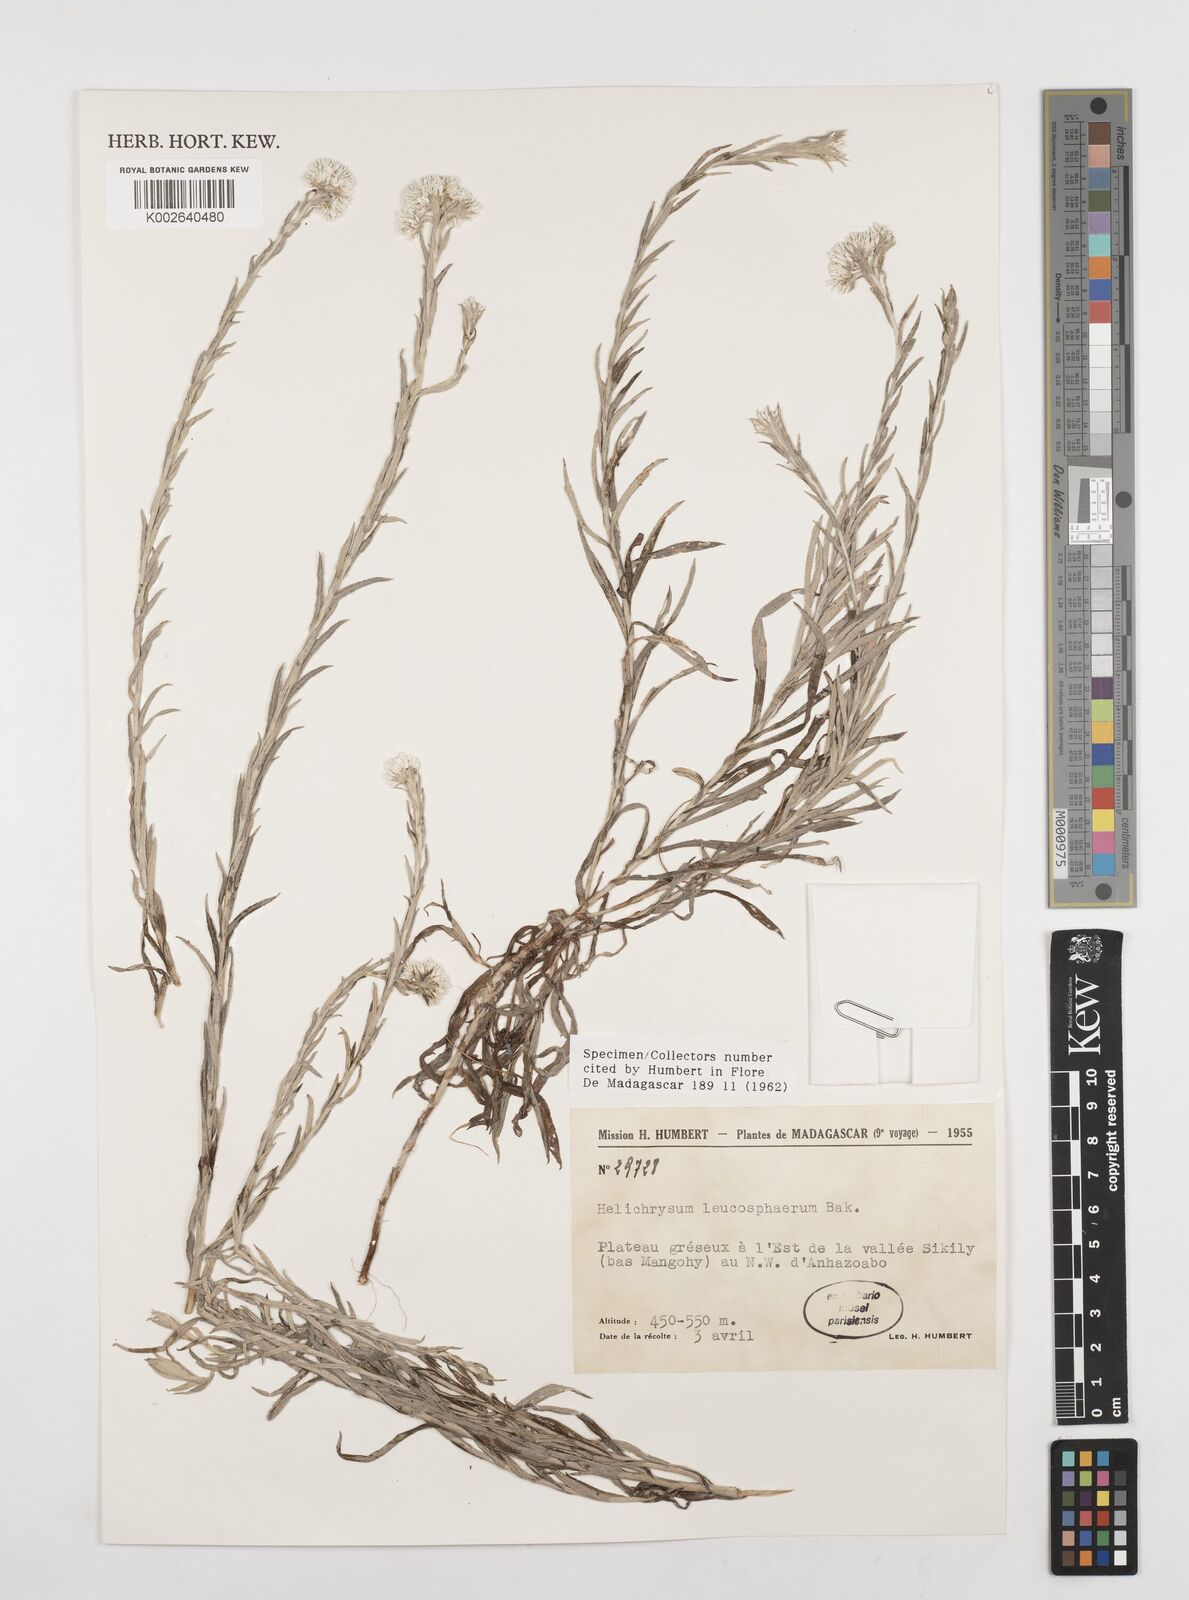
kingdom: Plantae
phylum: Tracheophyta
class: Magnoliopsida
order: Asterales
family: Asteraceae
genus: Helichrysum
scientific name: Helichrysum leucosphaerum
